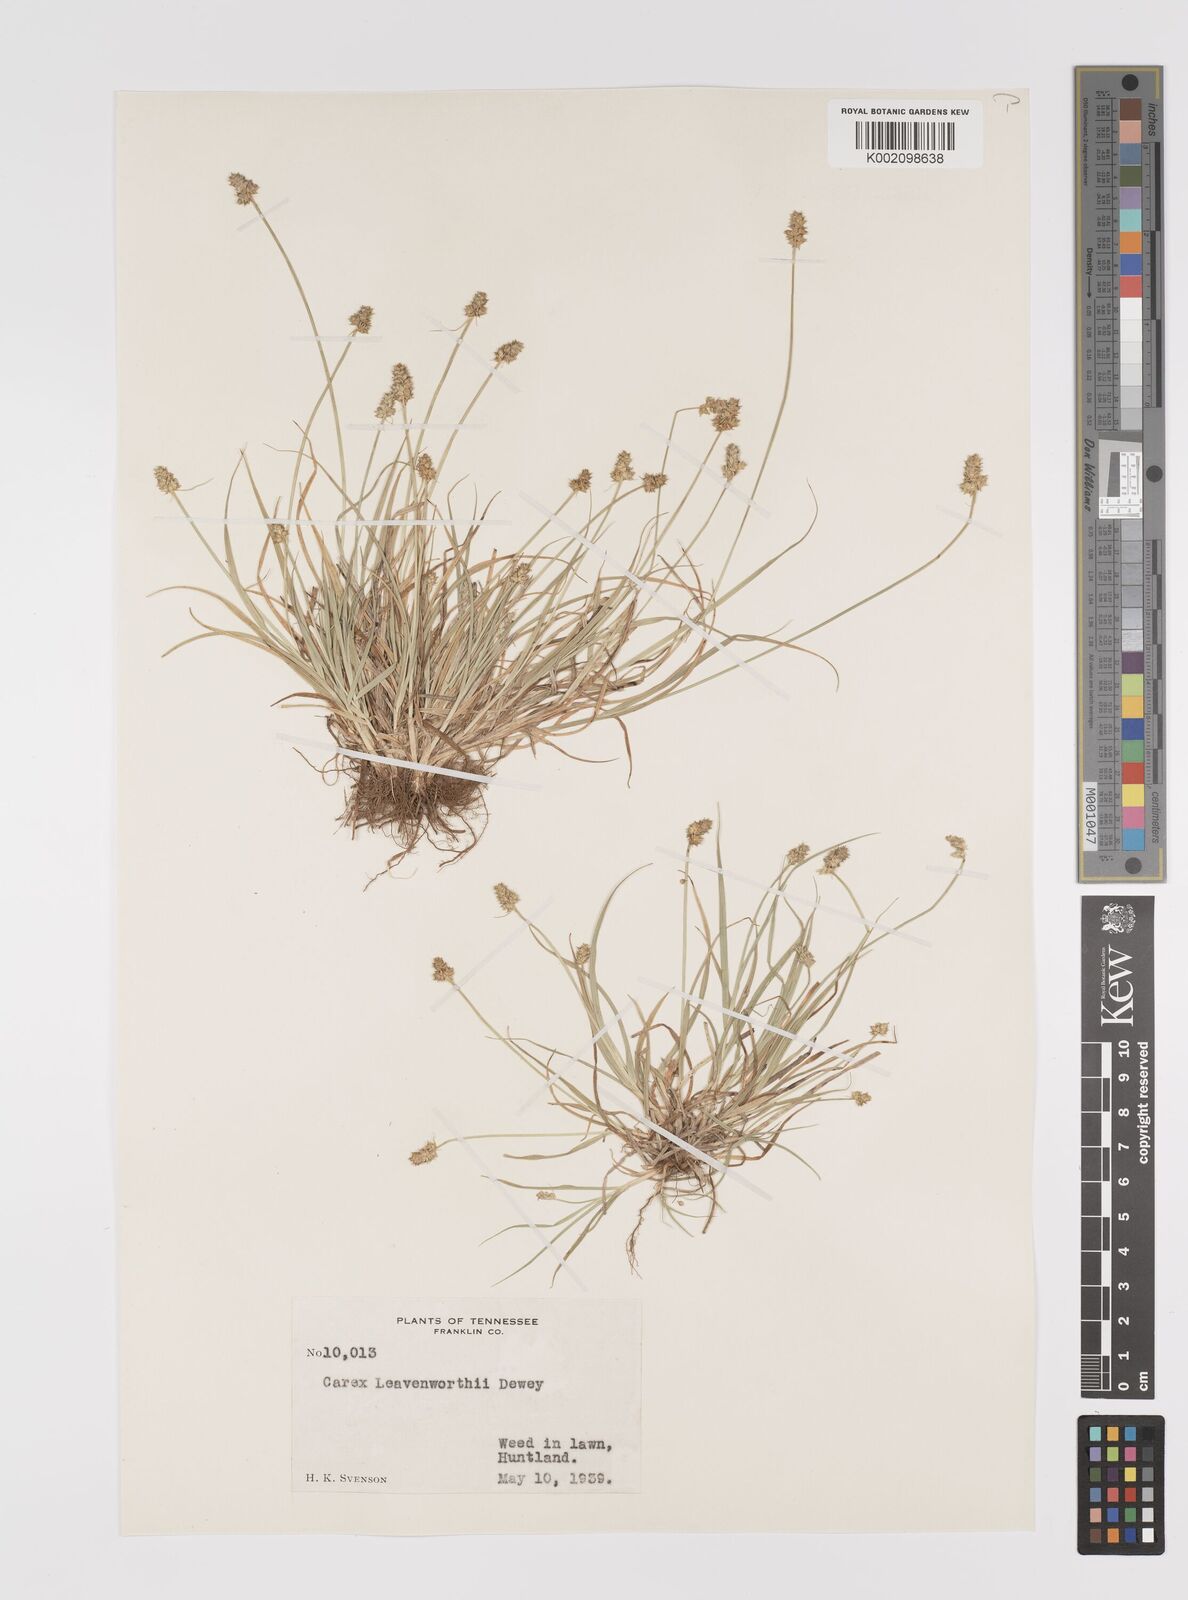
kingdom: Plantae
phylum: Tracheophyta
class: Liliopsida
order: Poales
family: Cyperaceae
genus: Carex
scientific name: Carex leavenworthii
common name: Leavenworth's bracted sedge
